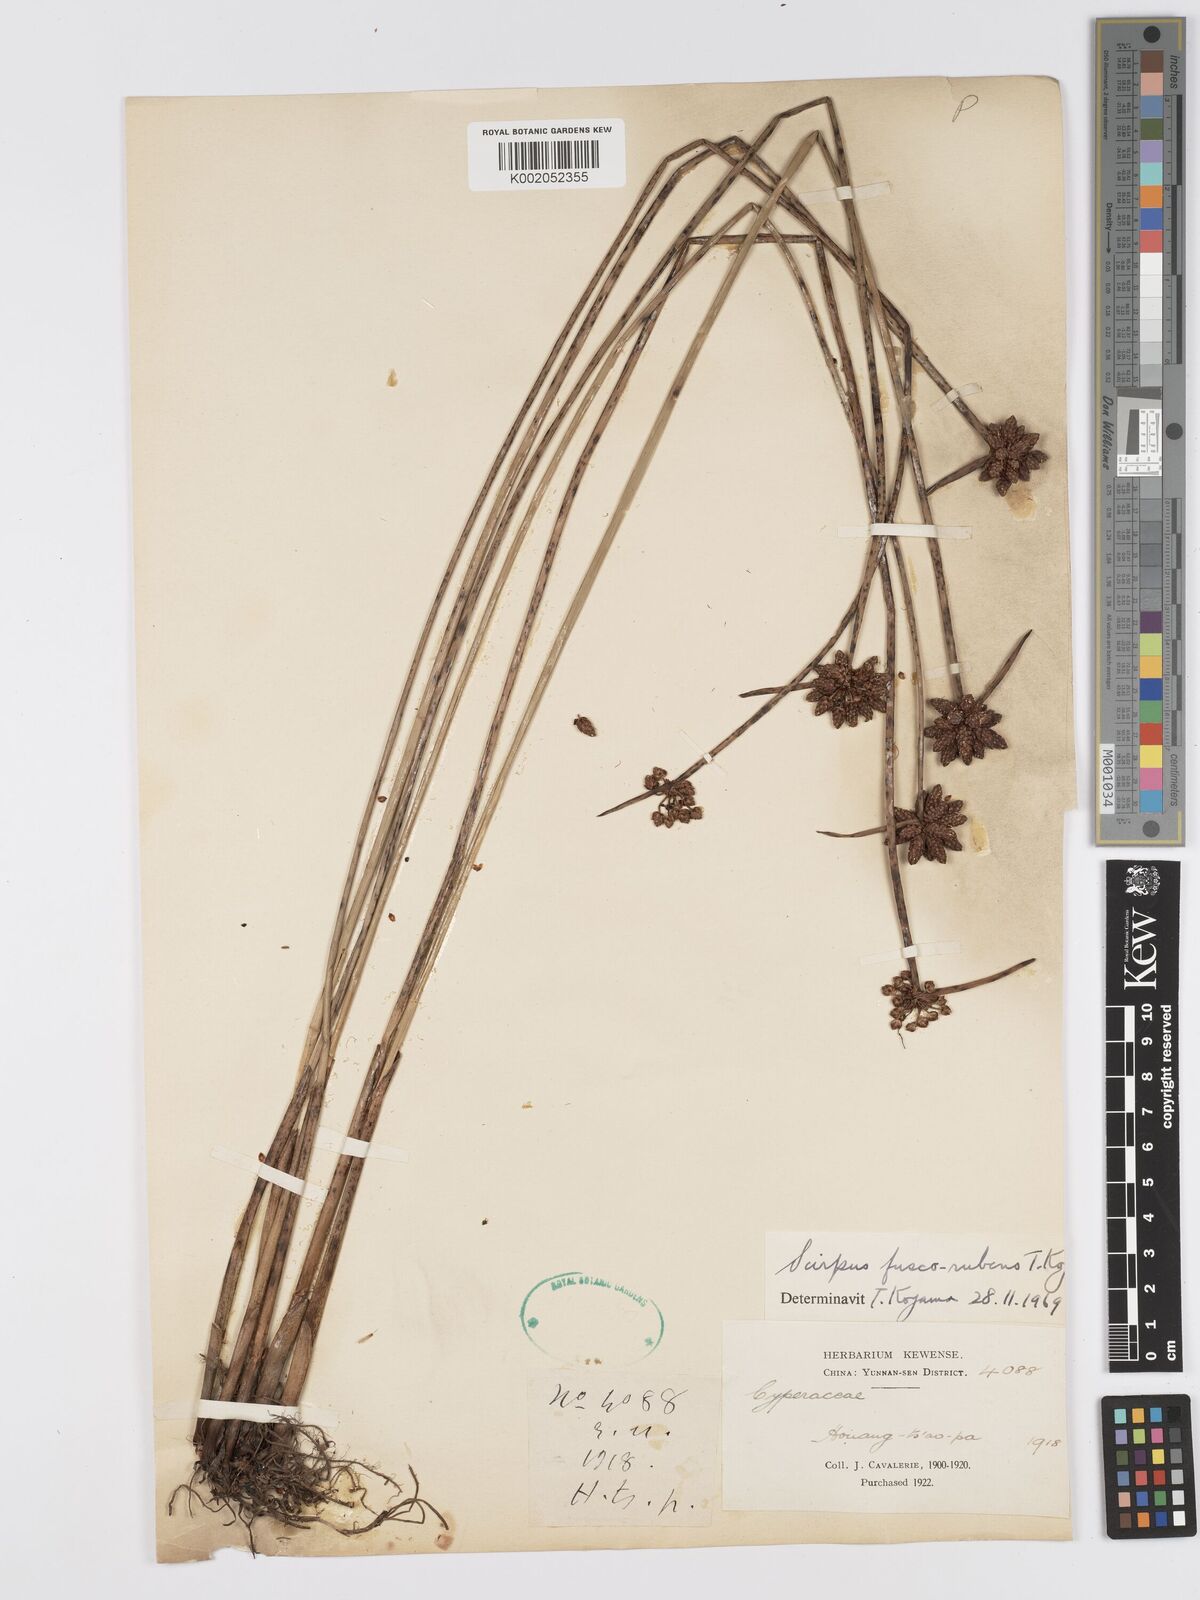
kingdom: Plantae
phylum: Tracheophyta
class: Liliopsida
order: Poales
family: Cyperaceae
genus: Schoenoplectiella
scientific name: Schoenoplectiella fuscorubens
